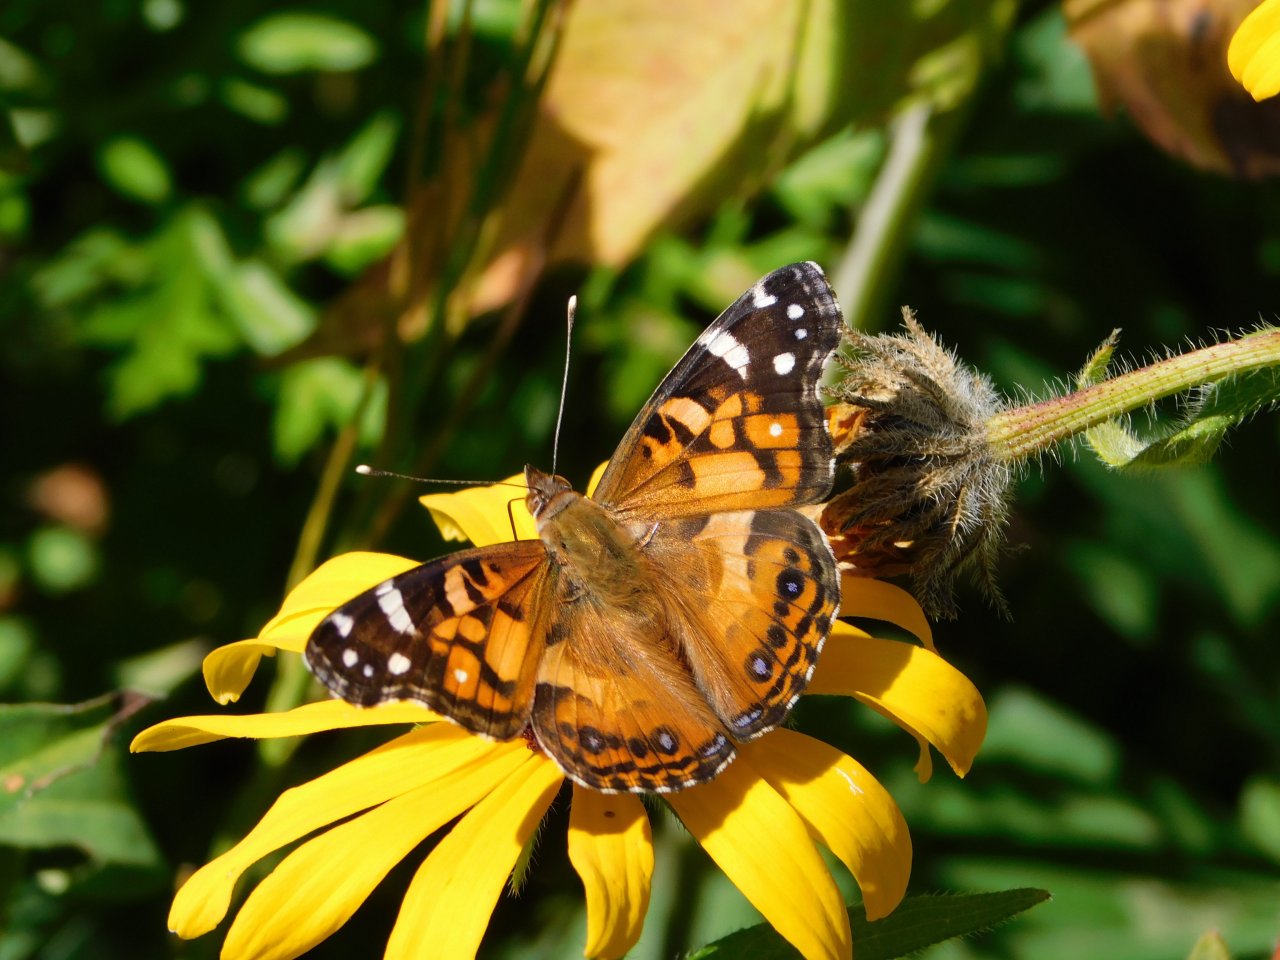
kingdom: Animalia
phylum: Arthropoda
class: Insecta
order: Lepidoptera
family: Nymphalidae
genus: Vanessa
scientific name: Vanessa virginiensis
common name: American Lady
